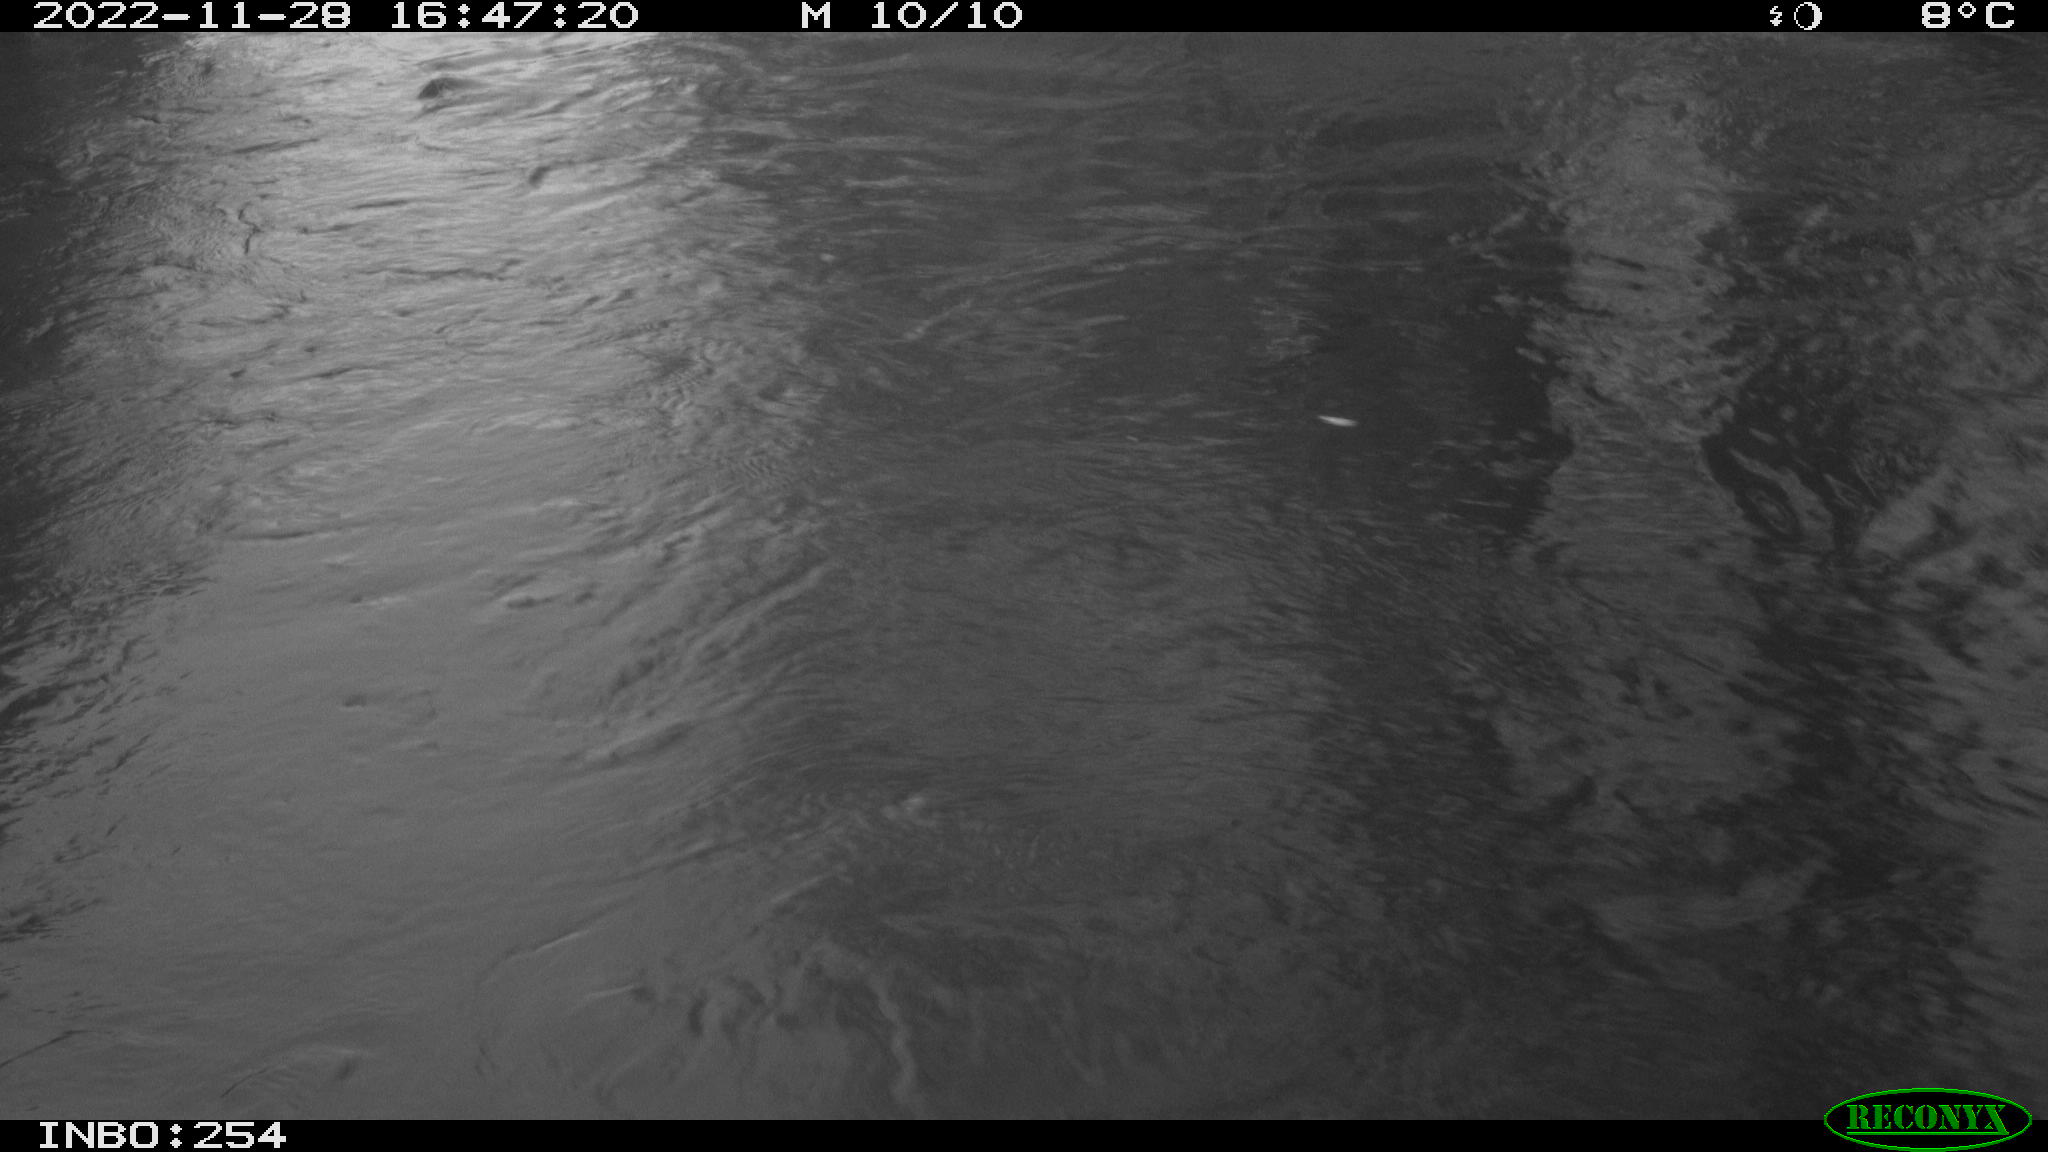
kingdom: Animalia
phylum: Chordata
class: Aves
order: Gruiformes
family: Rallidae
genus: Gallinula
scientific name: Gallinula chloropus
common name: Common moorhen
